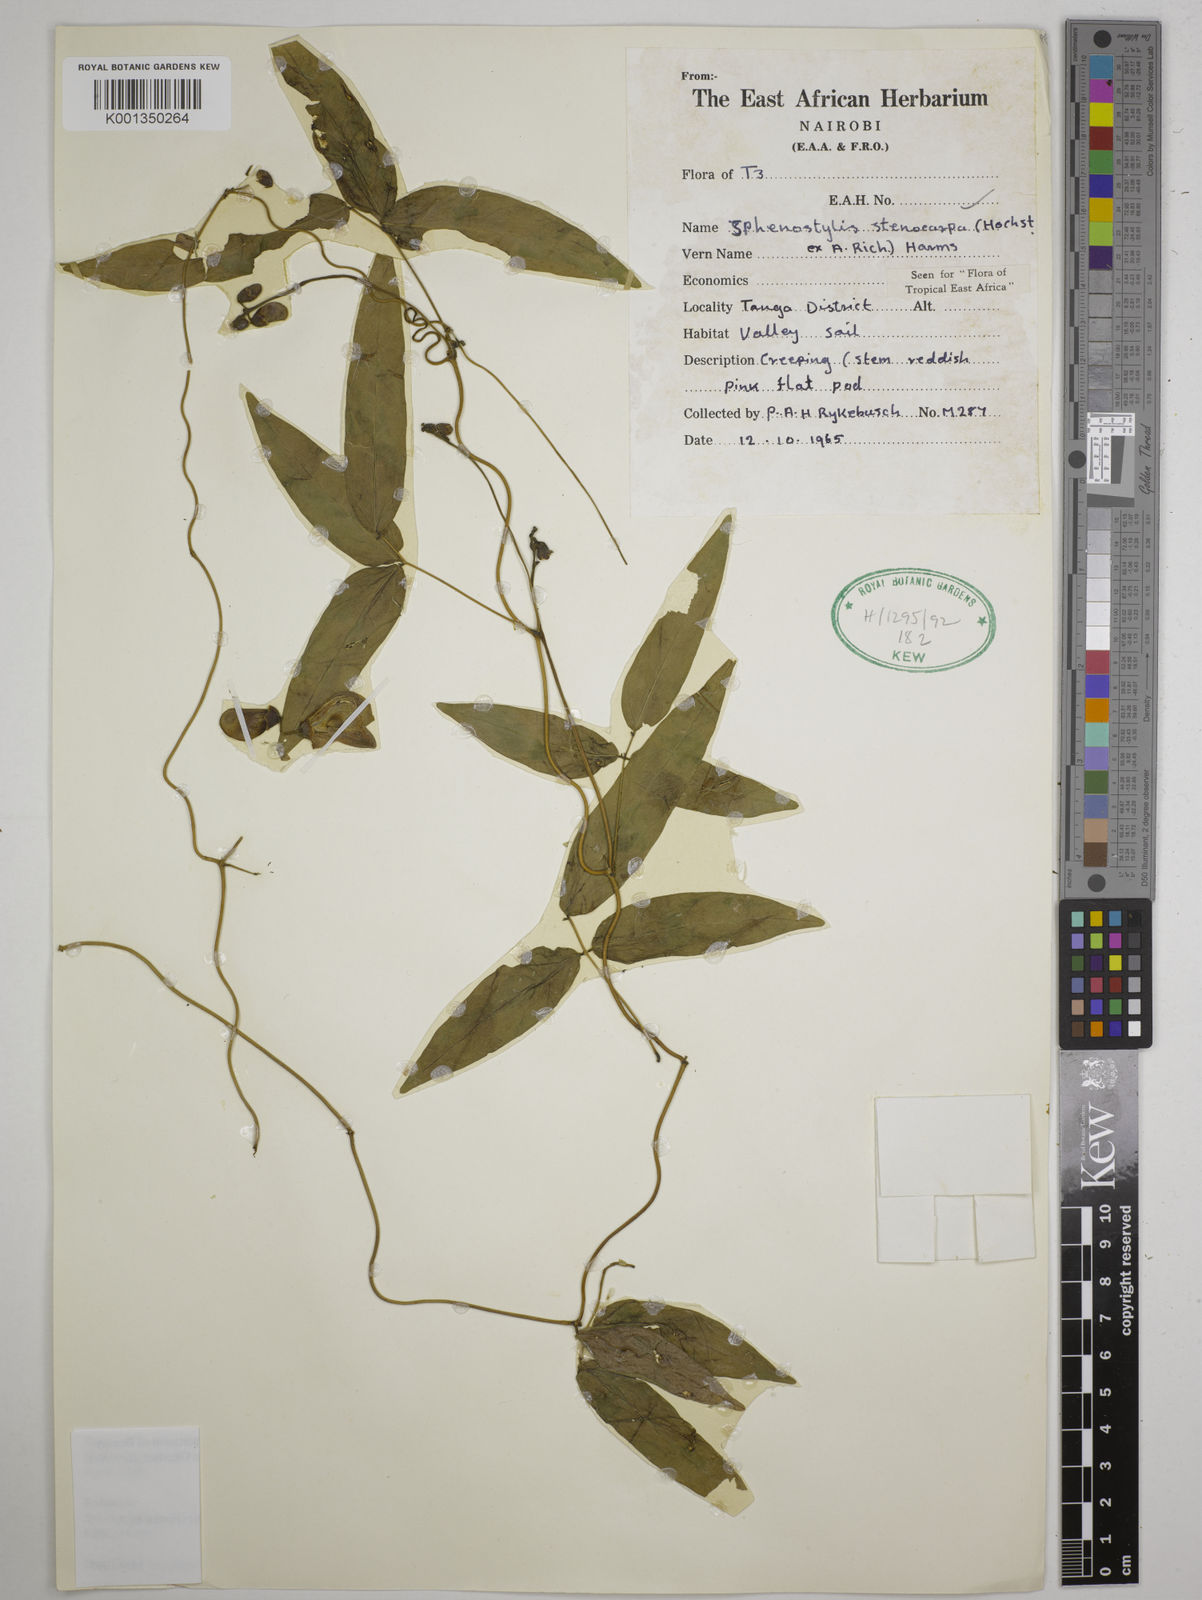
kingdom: Plantae
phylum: Tracheophyta
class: Magnoliopsida
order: Fabales
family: Fabaceae
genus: Sphenostylis
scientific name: Sphenostylis stenocarpa
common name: Yam-pea
